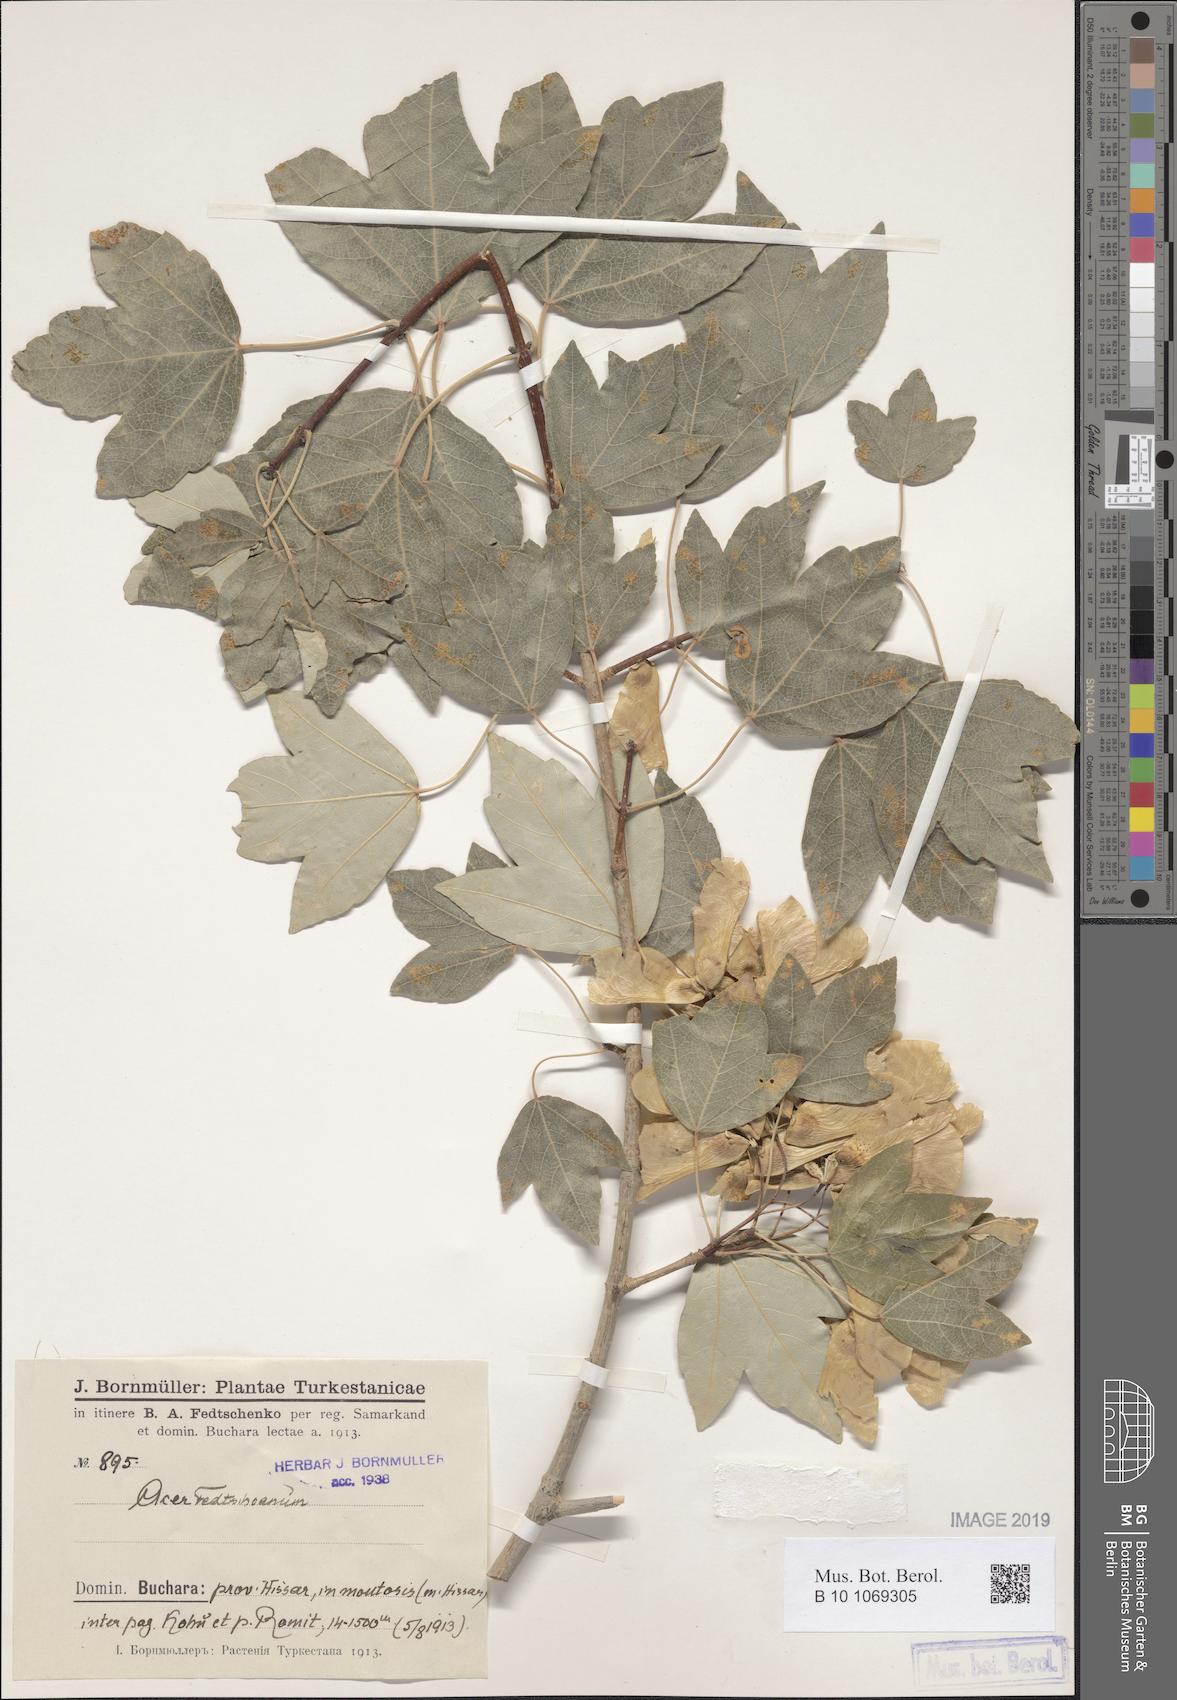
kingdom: Plantae
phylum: Tracheophyta
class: Magnoliopsida
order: Sapindales
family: Sapindaceae
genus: Acer
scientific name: Acer pentapomicum
